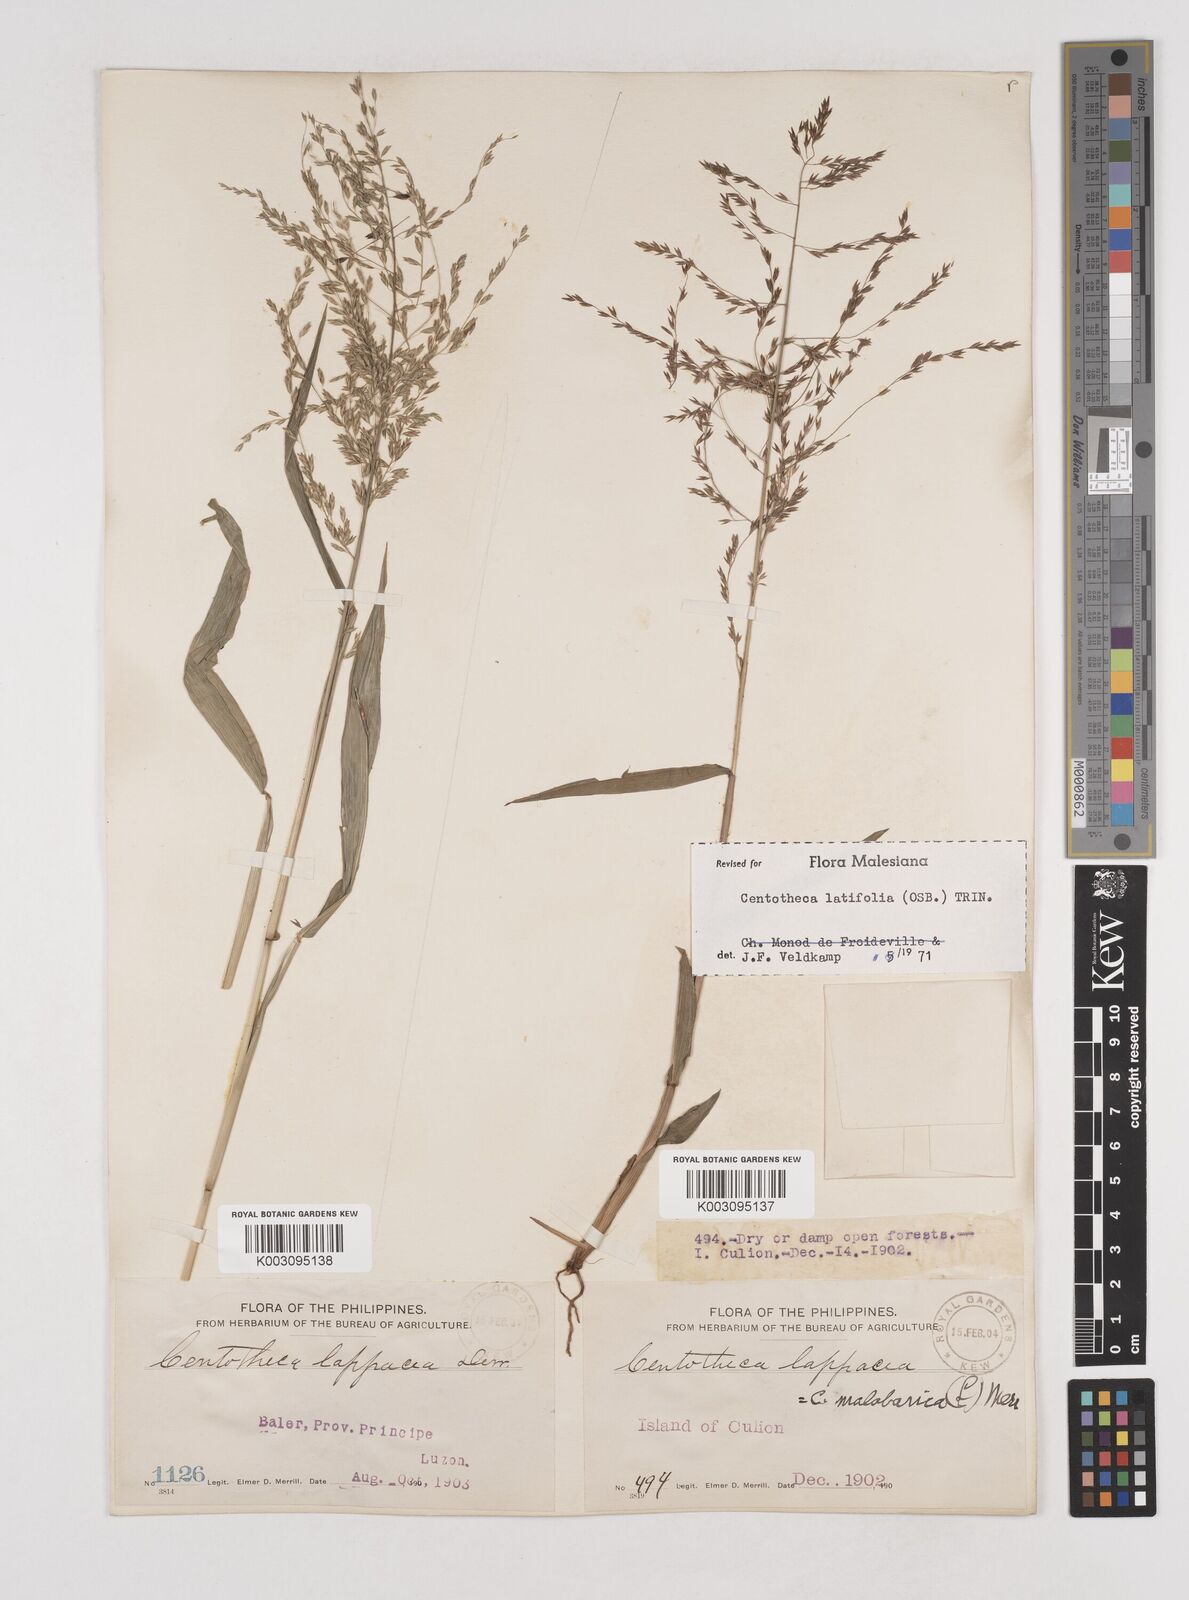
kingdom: Plantae
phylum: Tracheophyta
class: Liliopsida
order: Poales
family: Poaceae
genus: Centotheca
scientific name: Centotheca lappacea
